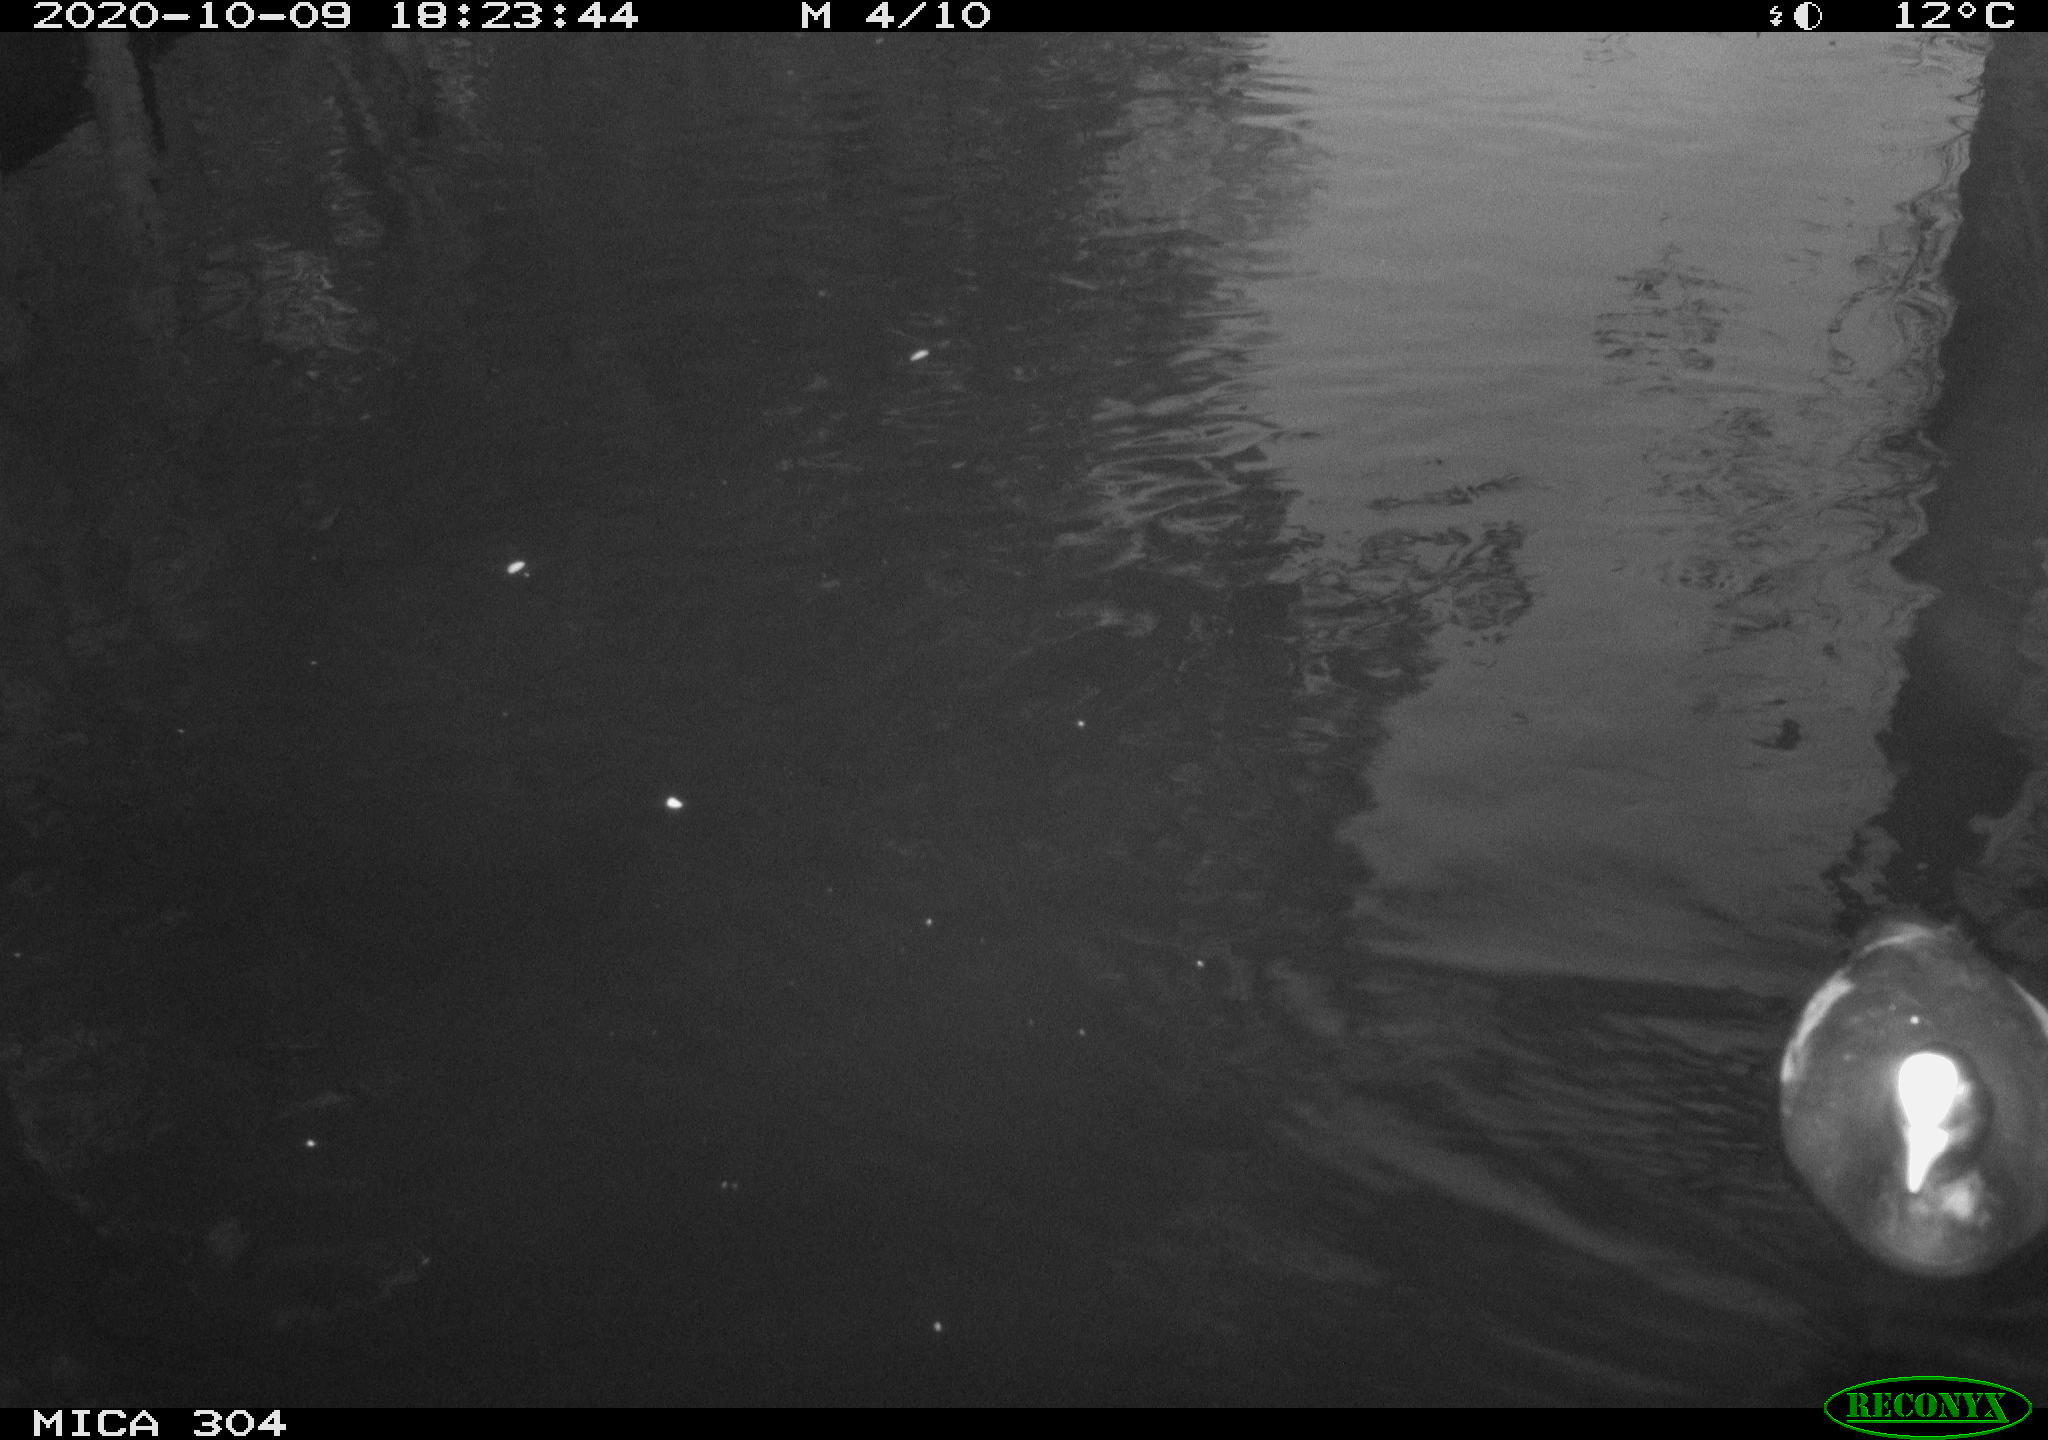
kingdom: Animalia
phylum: Chordata
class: Aves
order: Gruiformes
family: Rallidae
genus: Fulica
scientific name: Fulica atra
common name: Eurasian coot
